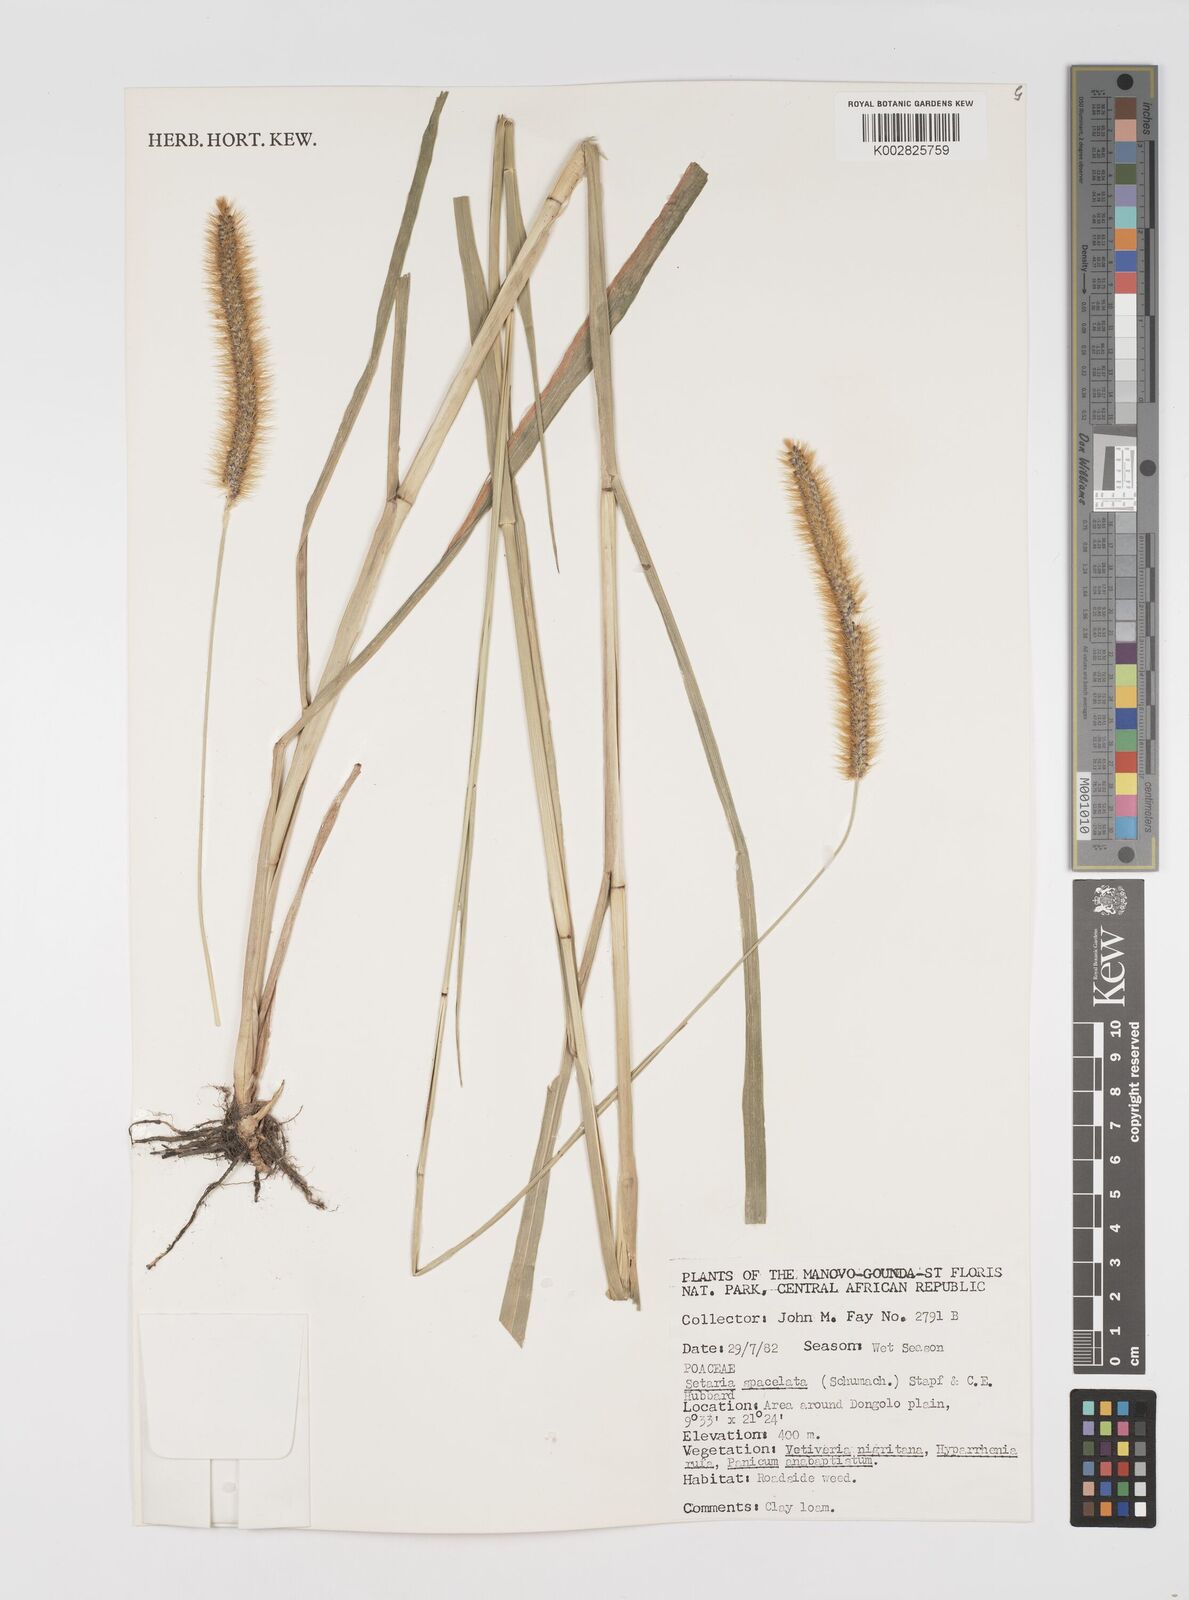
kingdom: Plantae
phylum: Tracheophyta
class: Liliopsida
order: Poales
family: Poaceae
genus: Setaria
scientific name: Setaria sphacelata
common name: African bristlegrass
